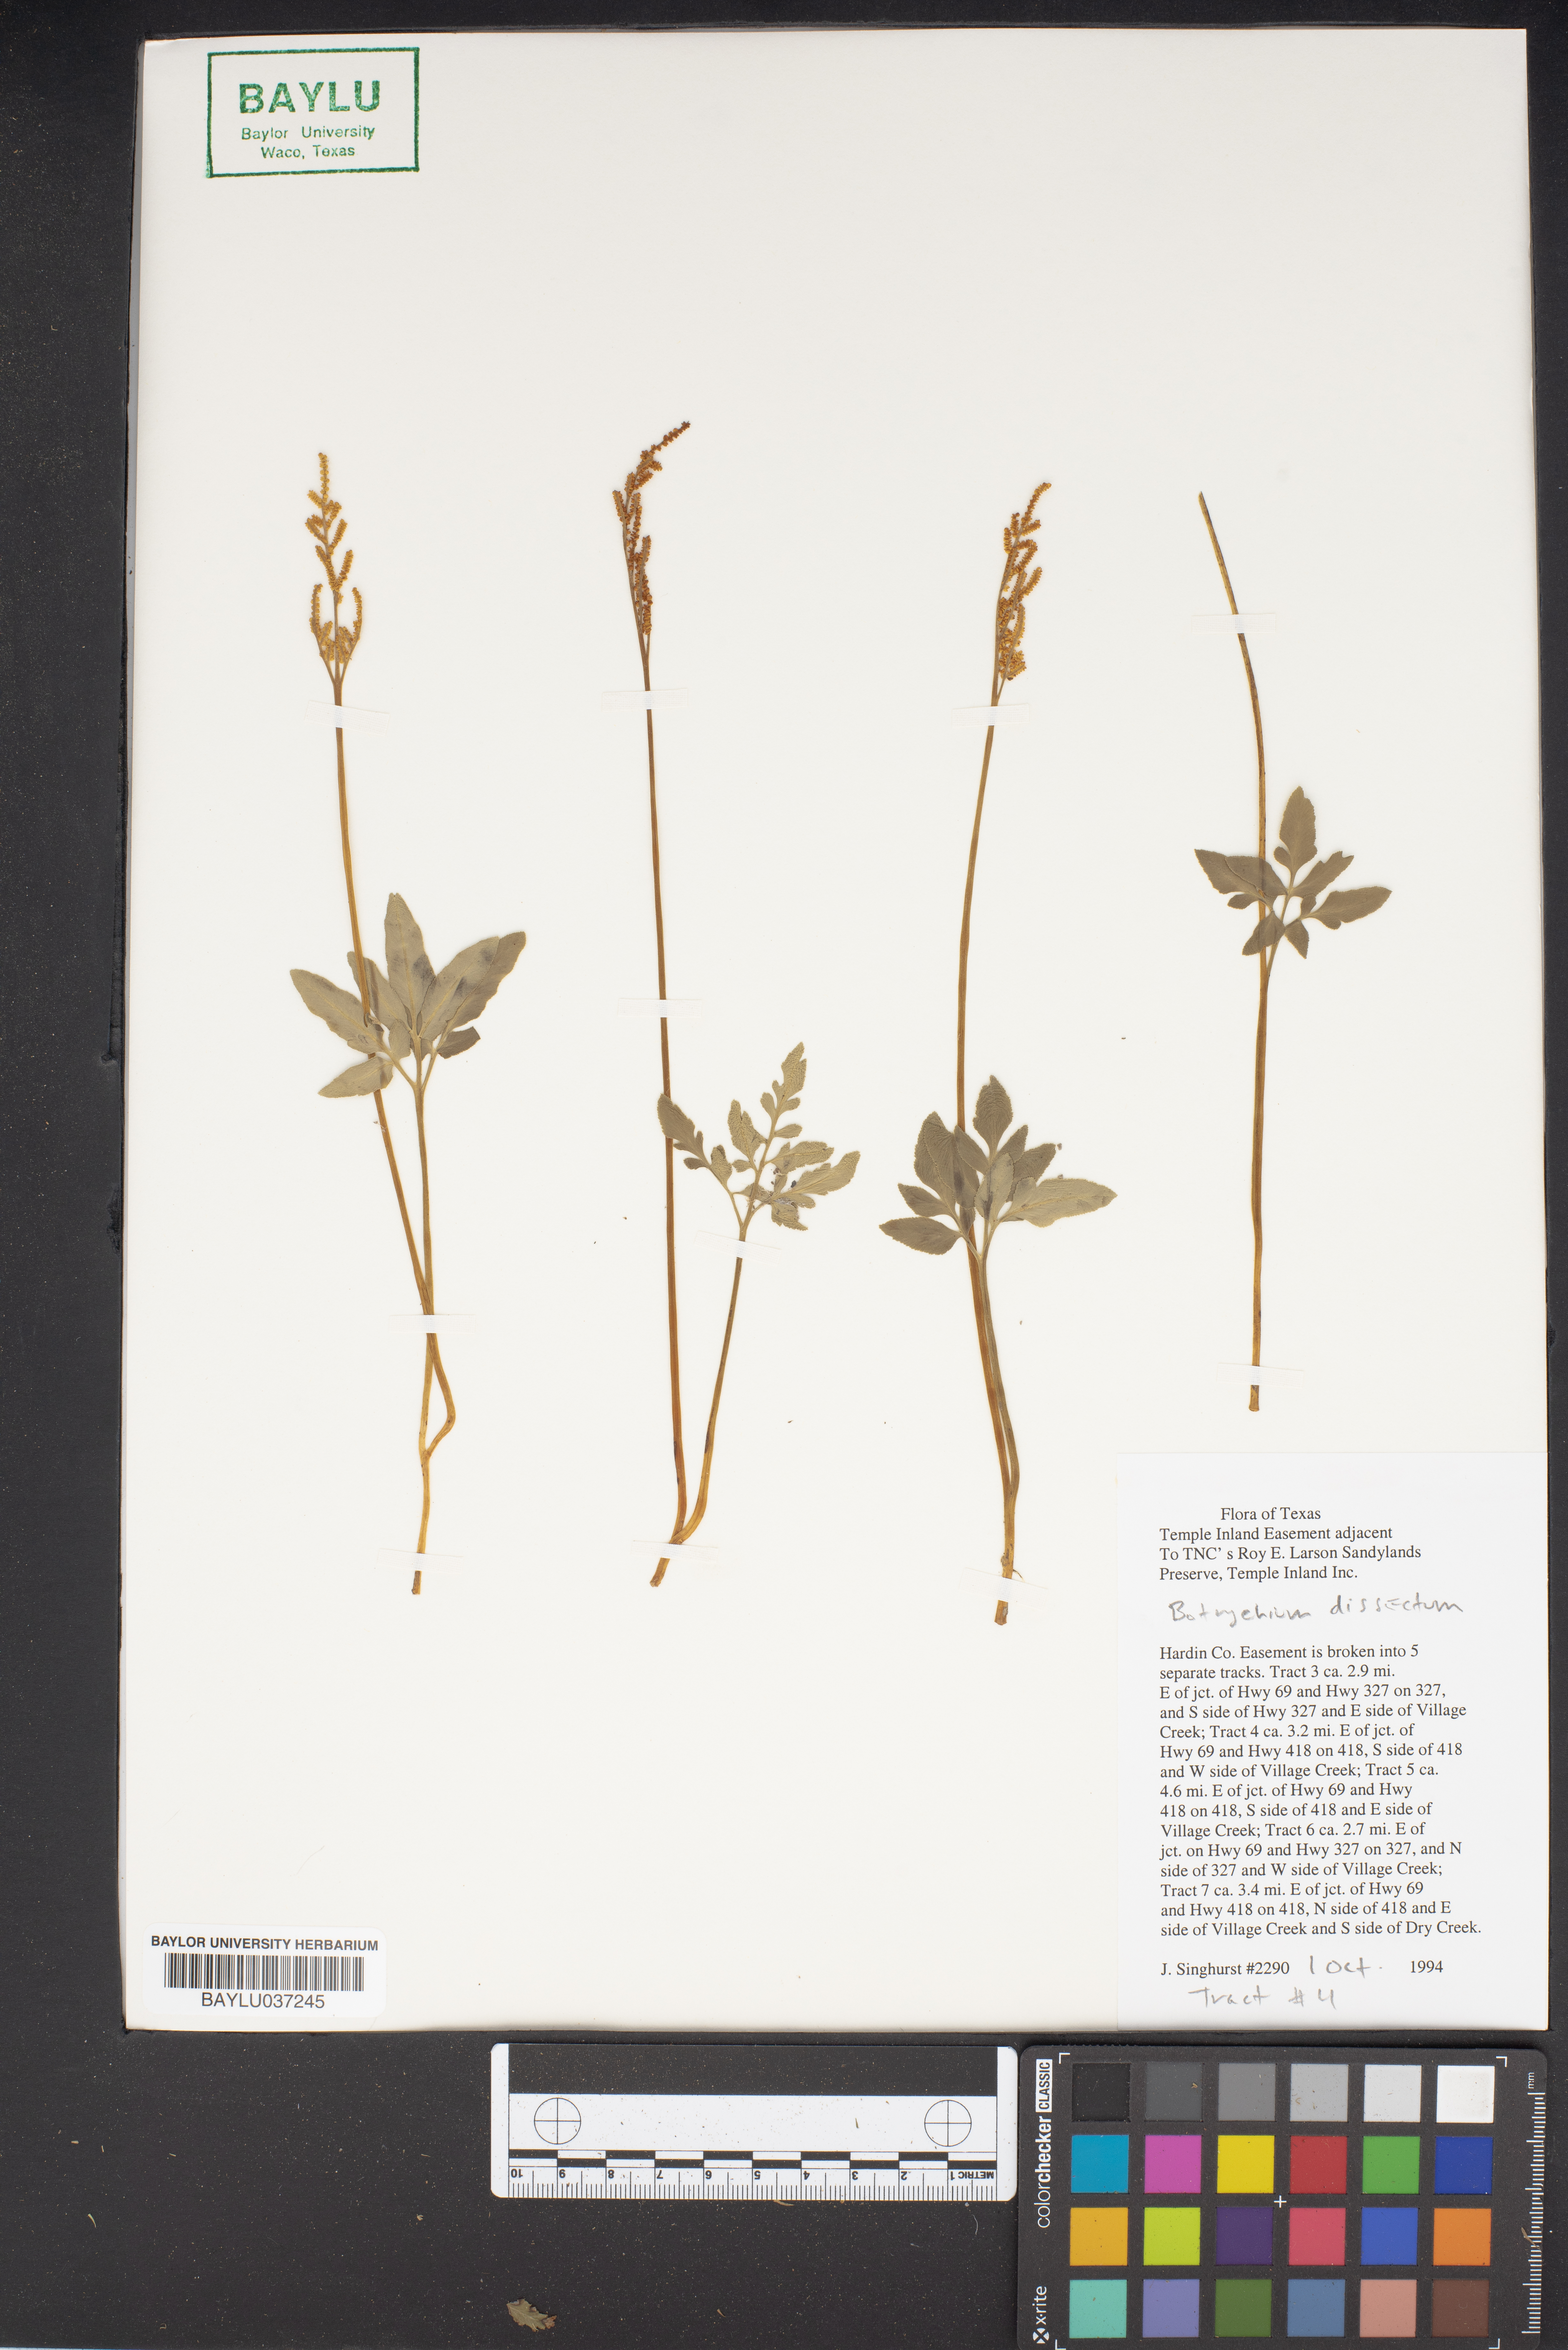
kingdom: Plantae
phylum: Tracheophyta
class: Polypodiopsida
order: Ophioglossales
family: Ophioglossaceae
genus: Sceptridium
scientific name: Sceptridium dissectum
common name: Cut-leaved grapefern
